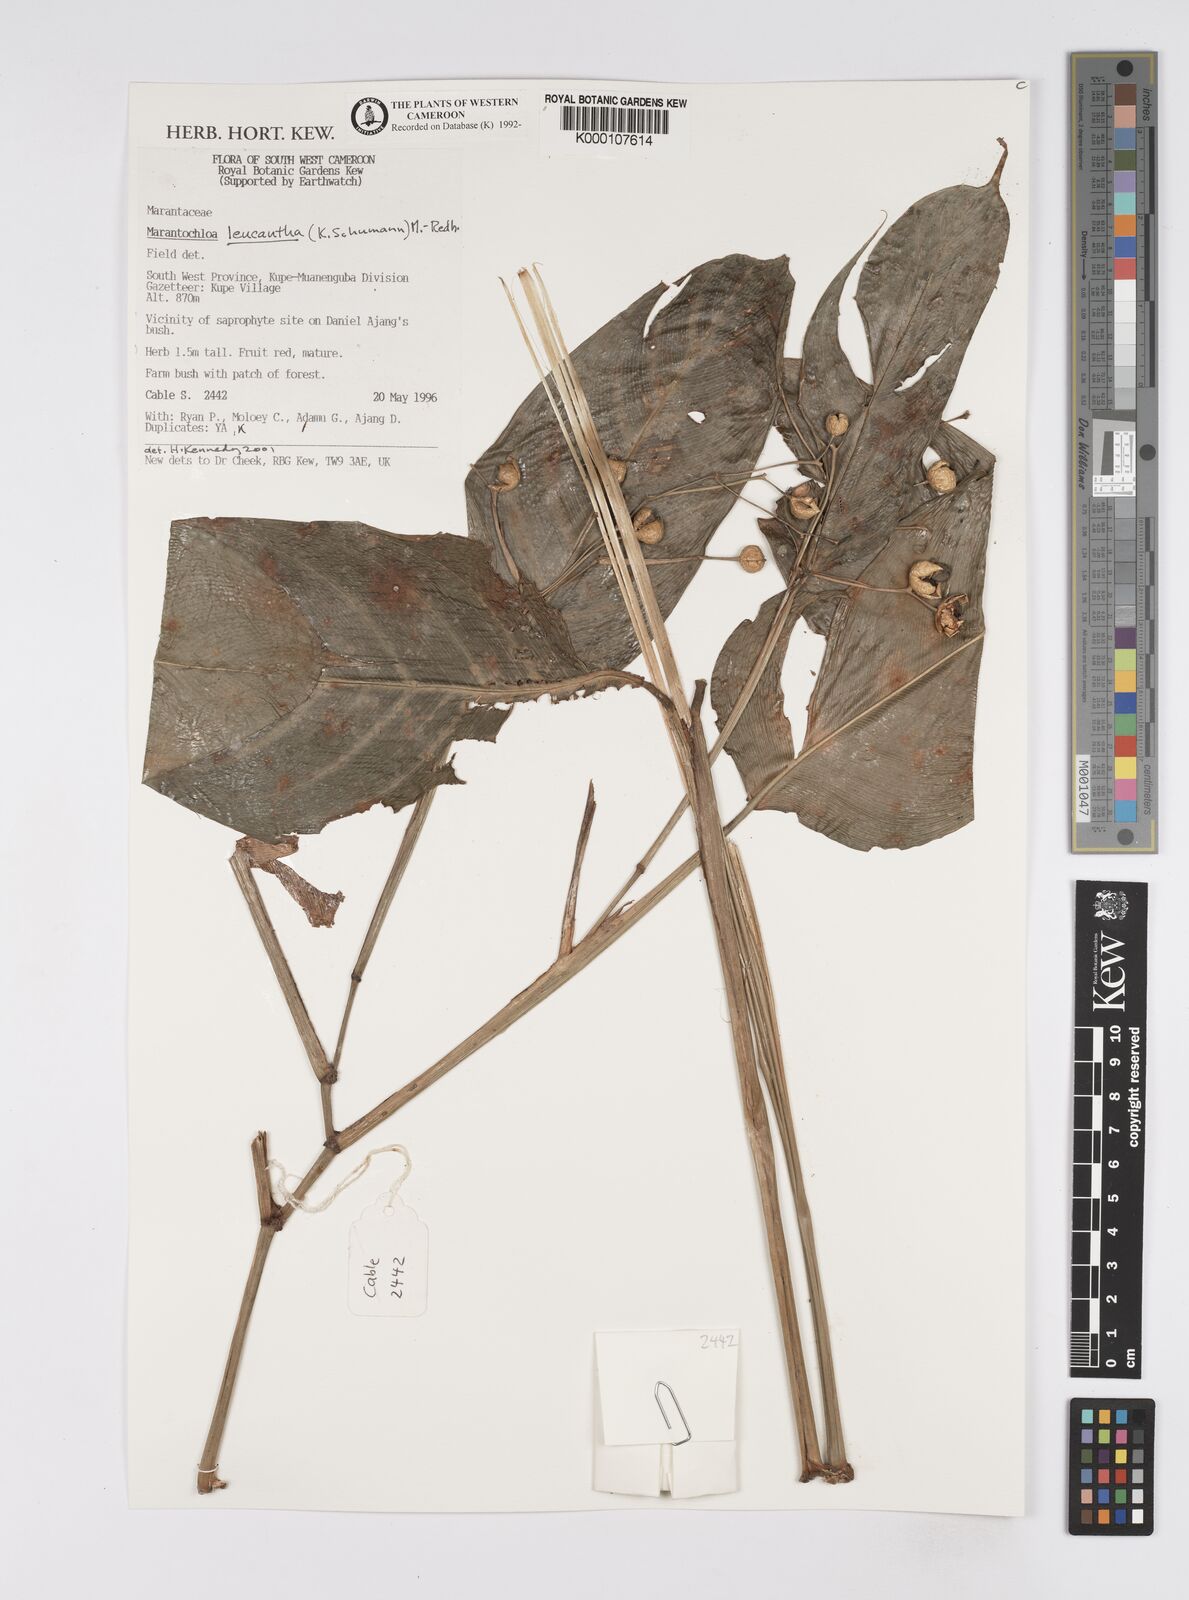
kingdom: Plantae
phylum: Tracheophyta
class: Liliopsida
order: Zingiberales
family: Marantaceae
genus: Marantochloa
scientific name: Marantochloa leucantha
